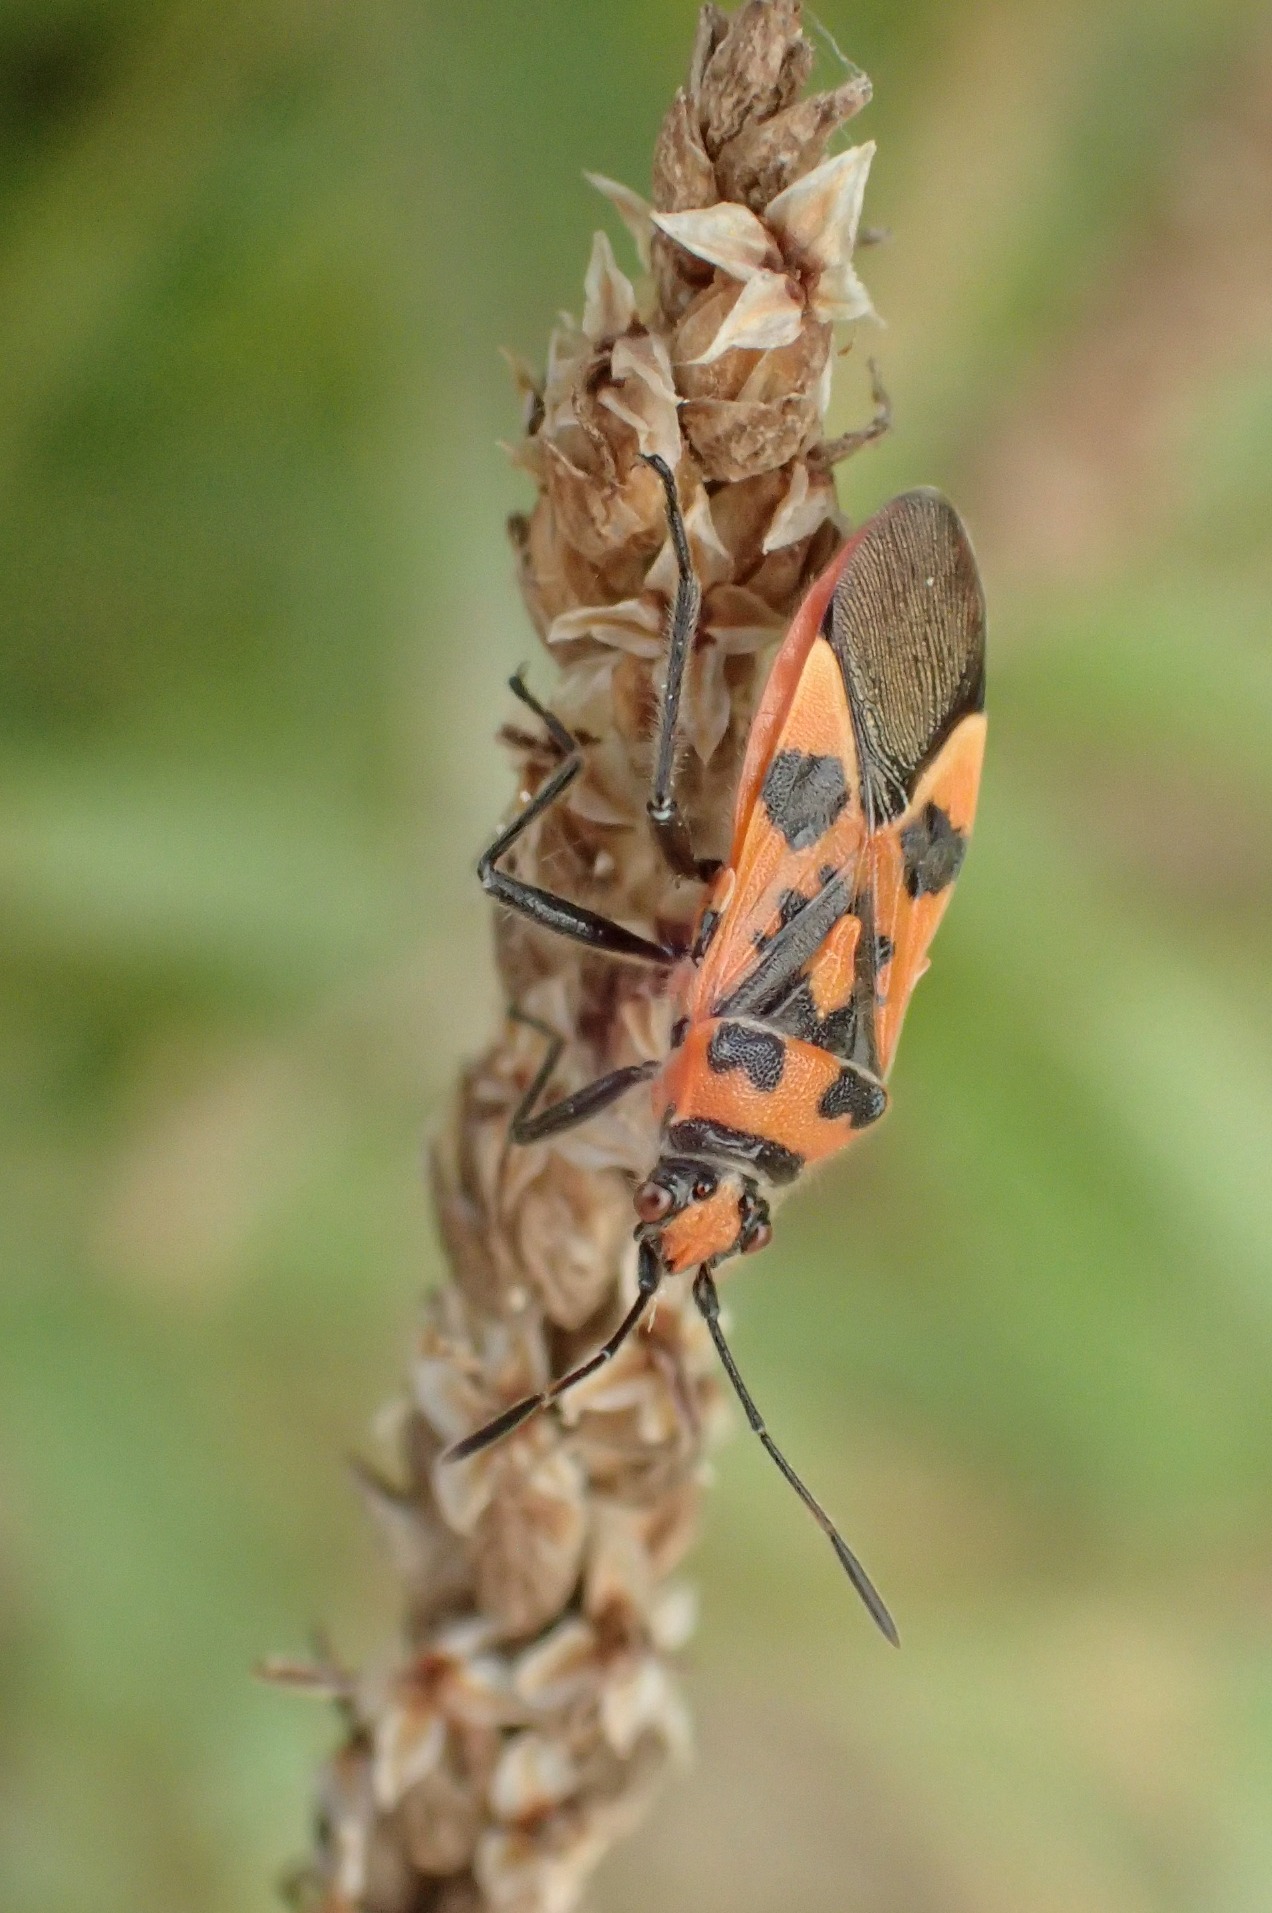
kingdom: Animalia
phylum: Arthropoda
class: Insecta
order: Hemiptera
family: Rhopalidae
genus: Corizus
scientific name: Corizus hyoscyami
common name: Rød kanttæge
